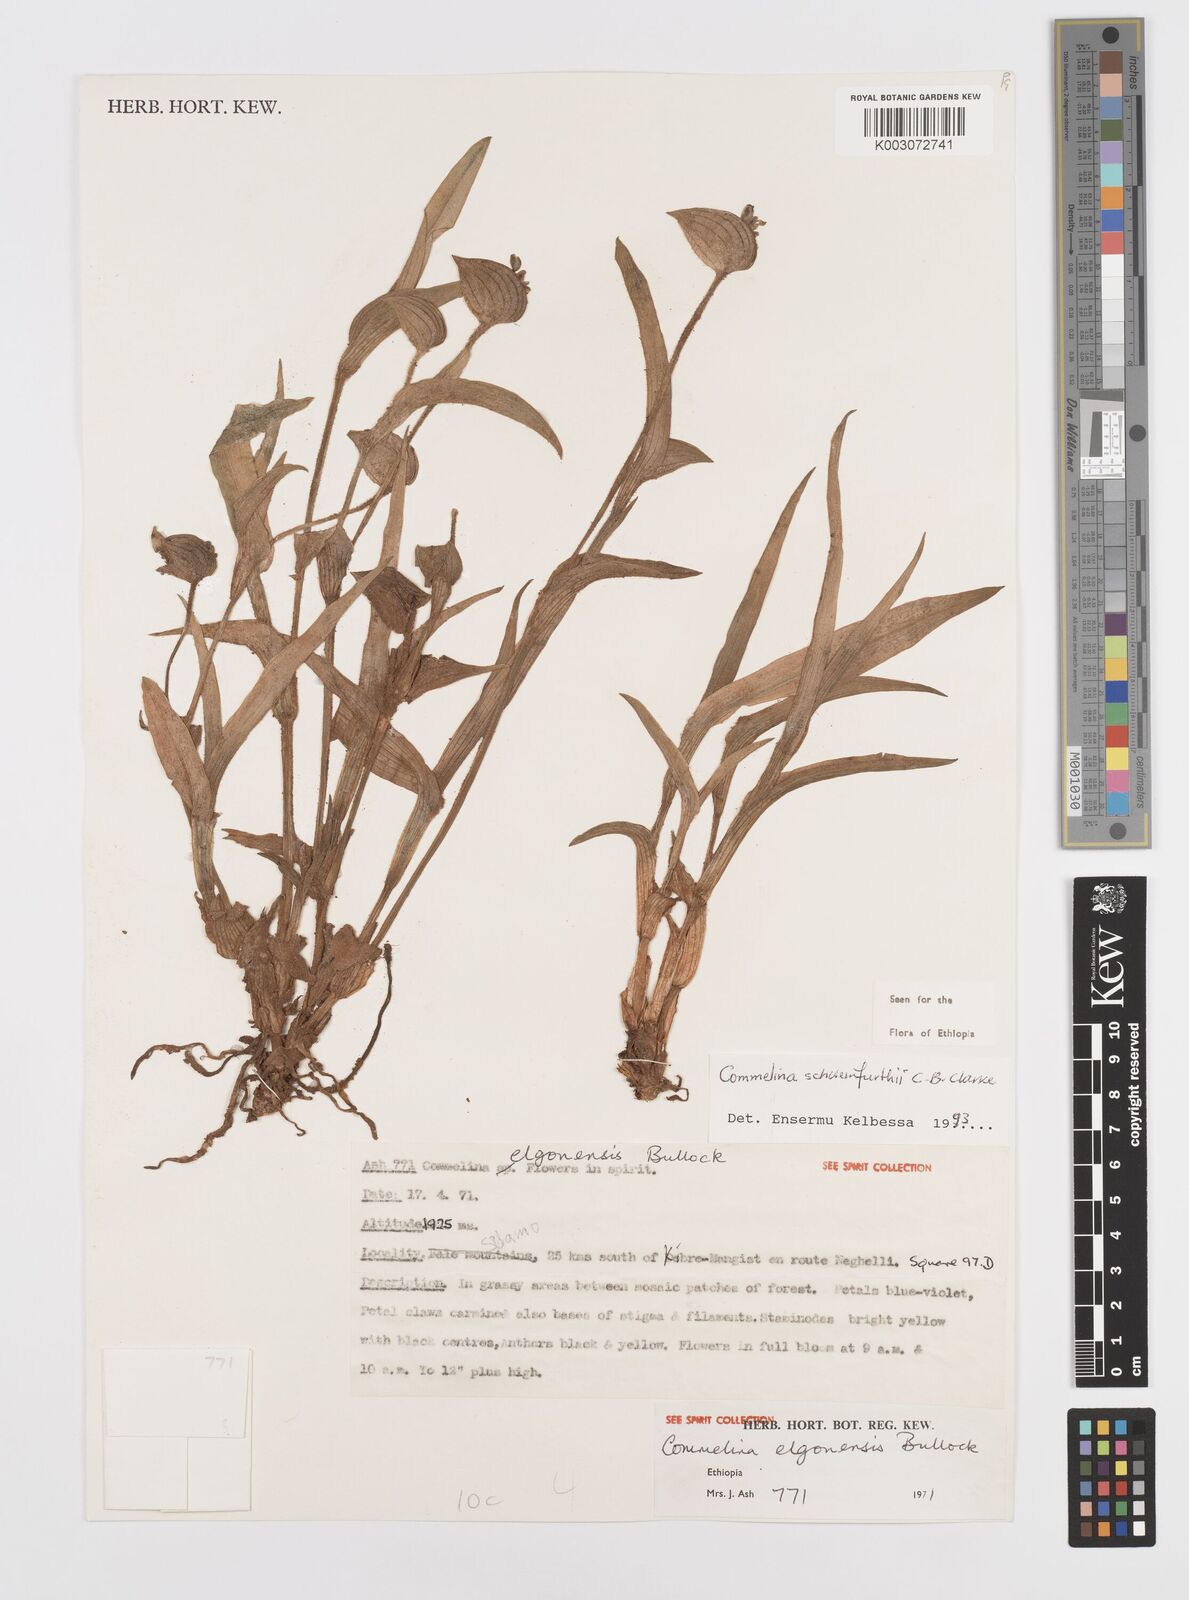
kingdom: Plantae
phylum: Tracheophyta
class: Liliopsida
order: Commelinales
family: Commelinaceae
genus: Commelina
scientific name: Commelina schweinfurthii
